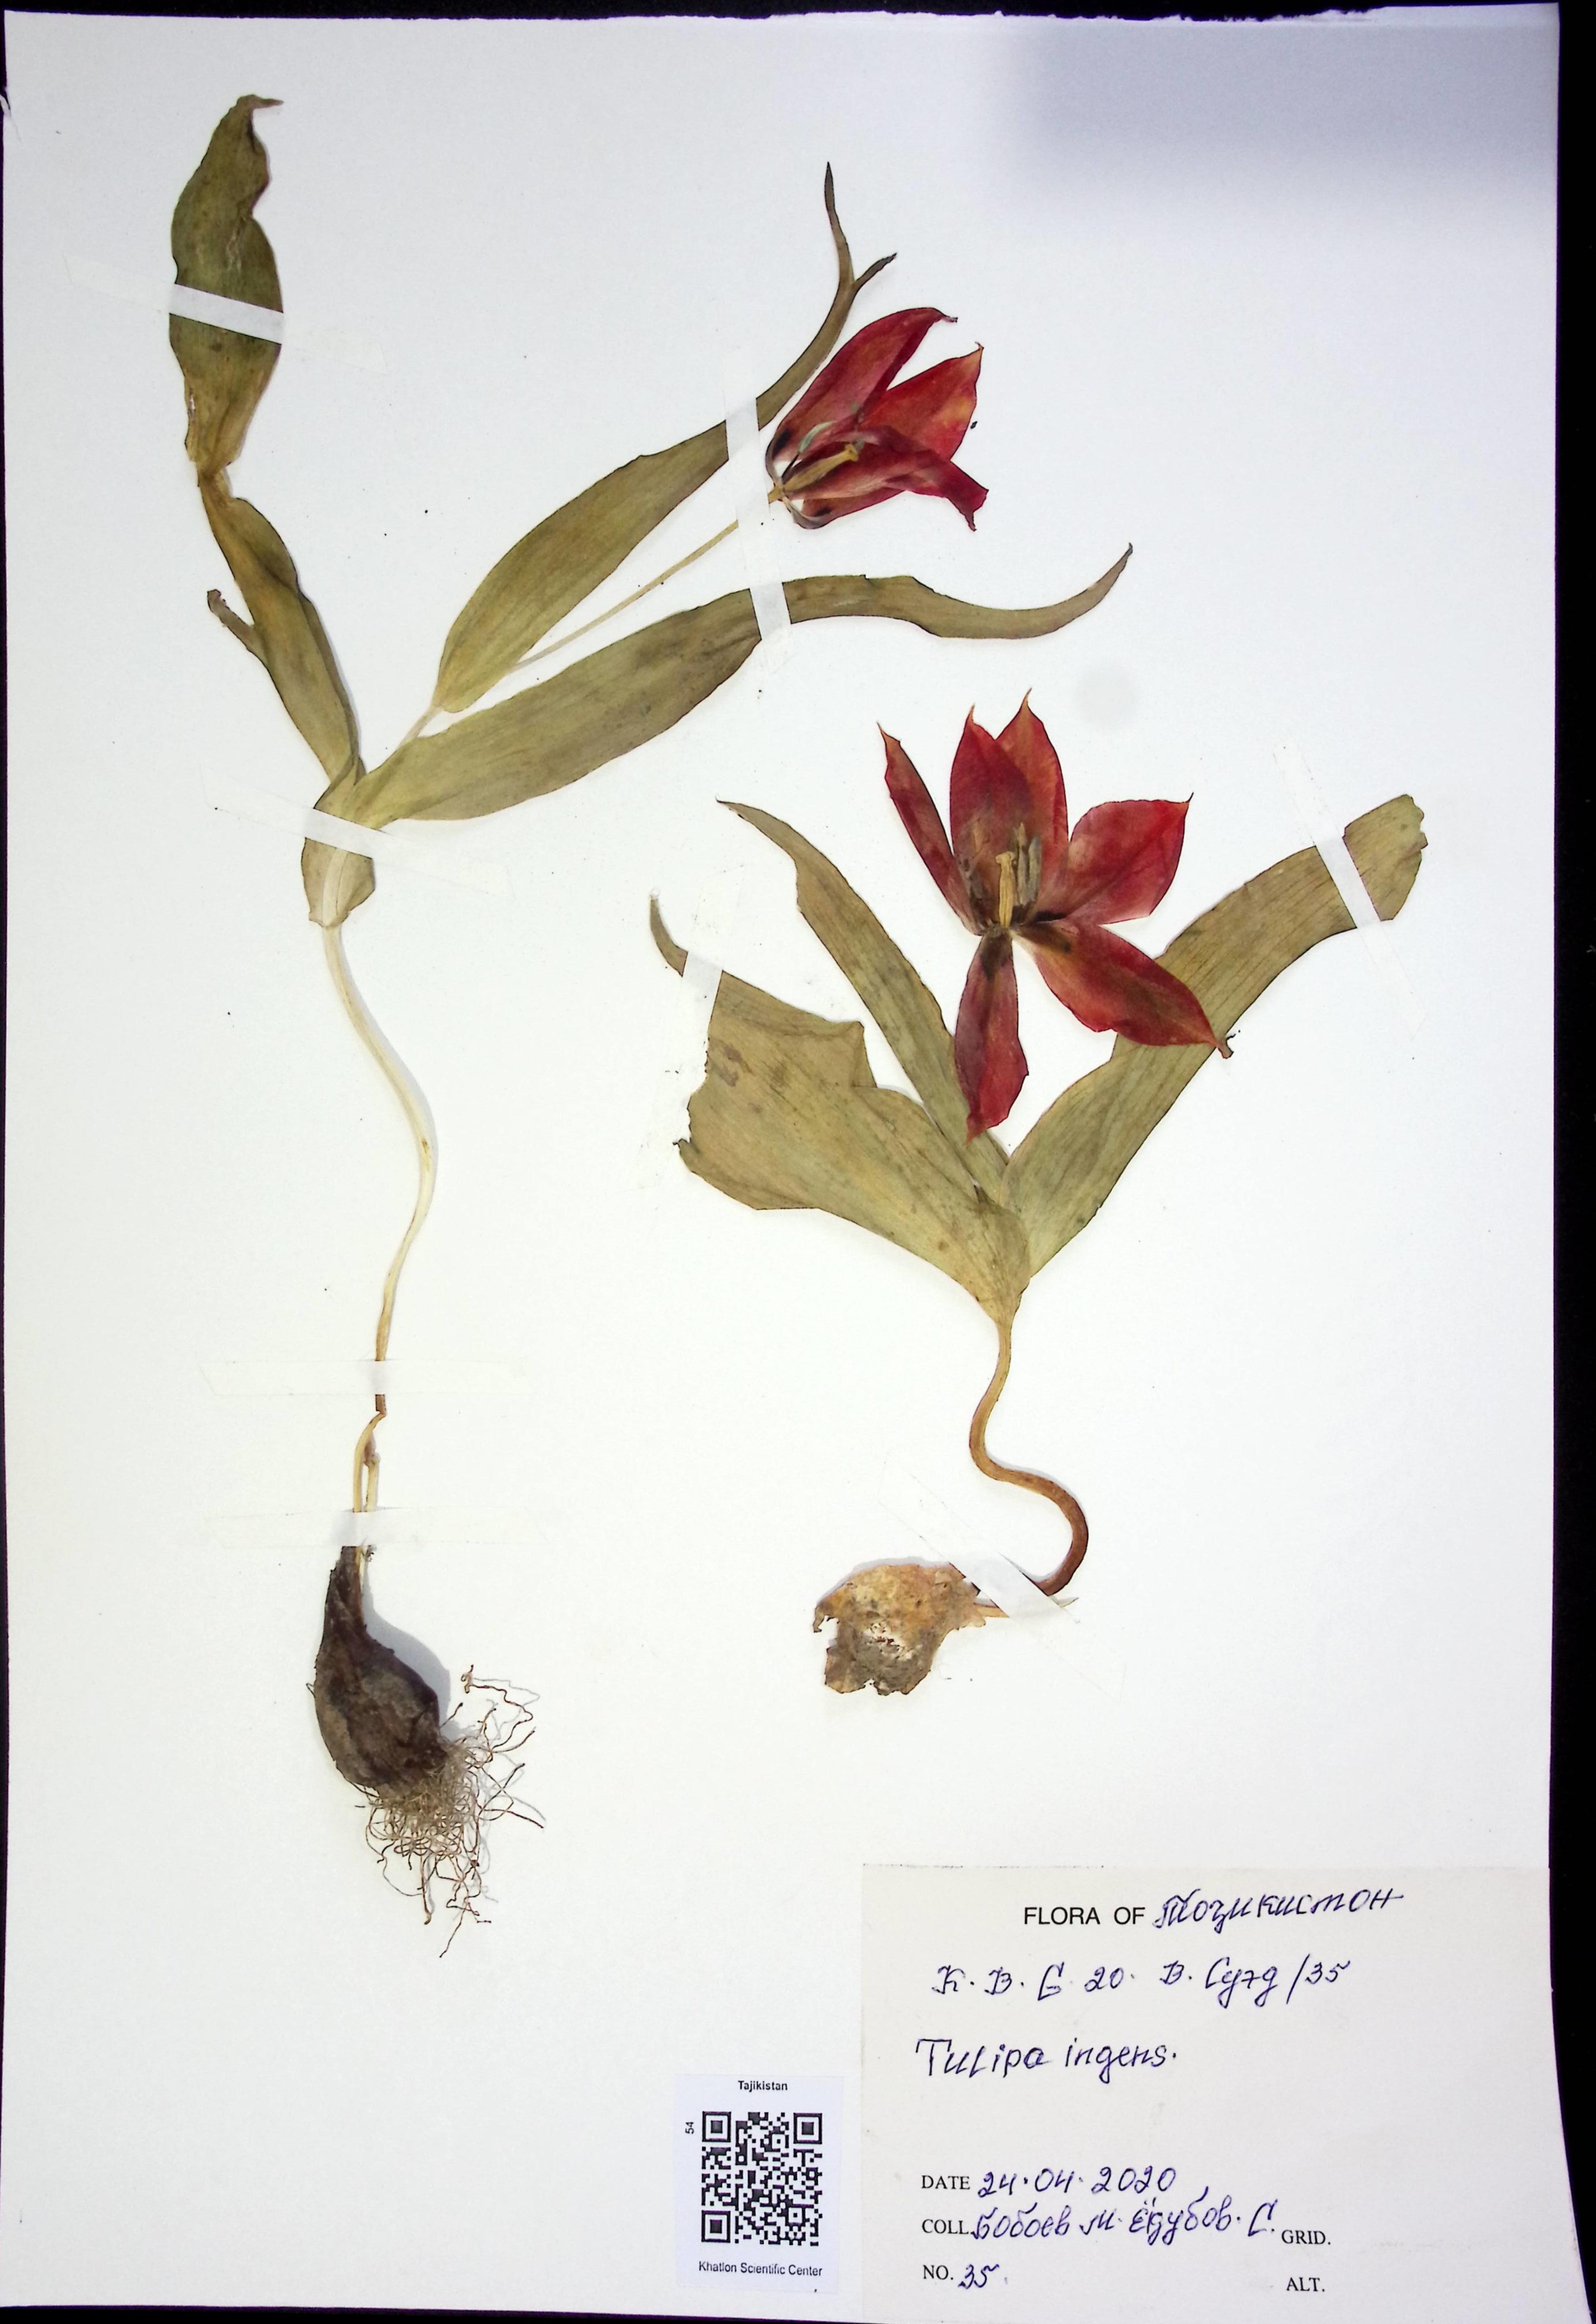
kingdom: Plantae
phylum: Tracheophyta
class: Liliopsida
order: Liliales
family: Liliaceae
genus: Tulipa
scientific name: Tulipa ingens
